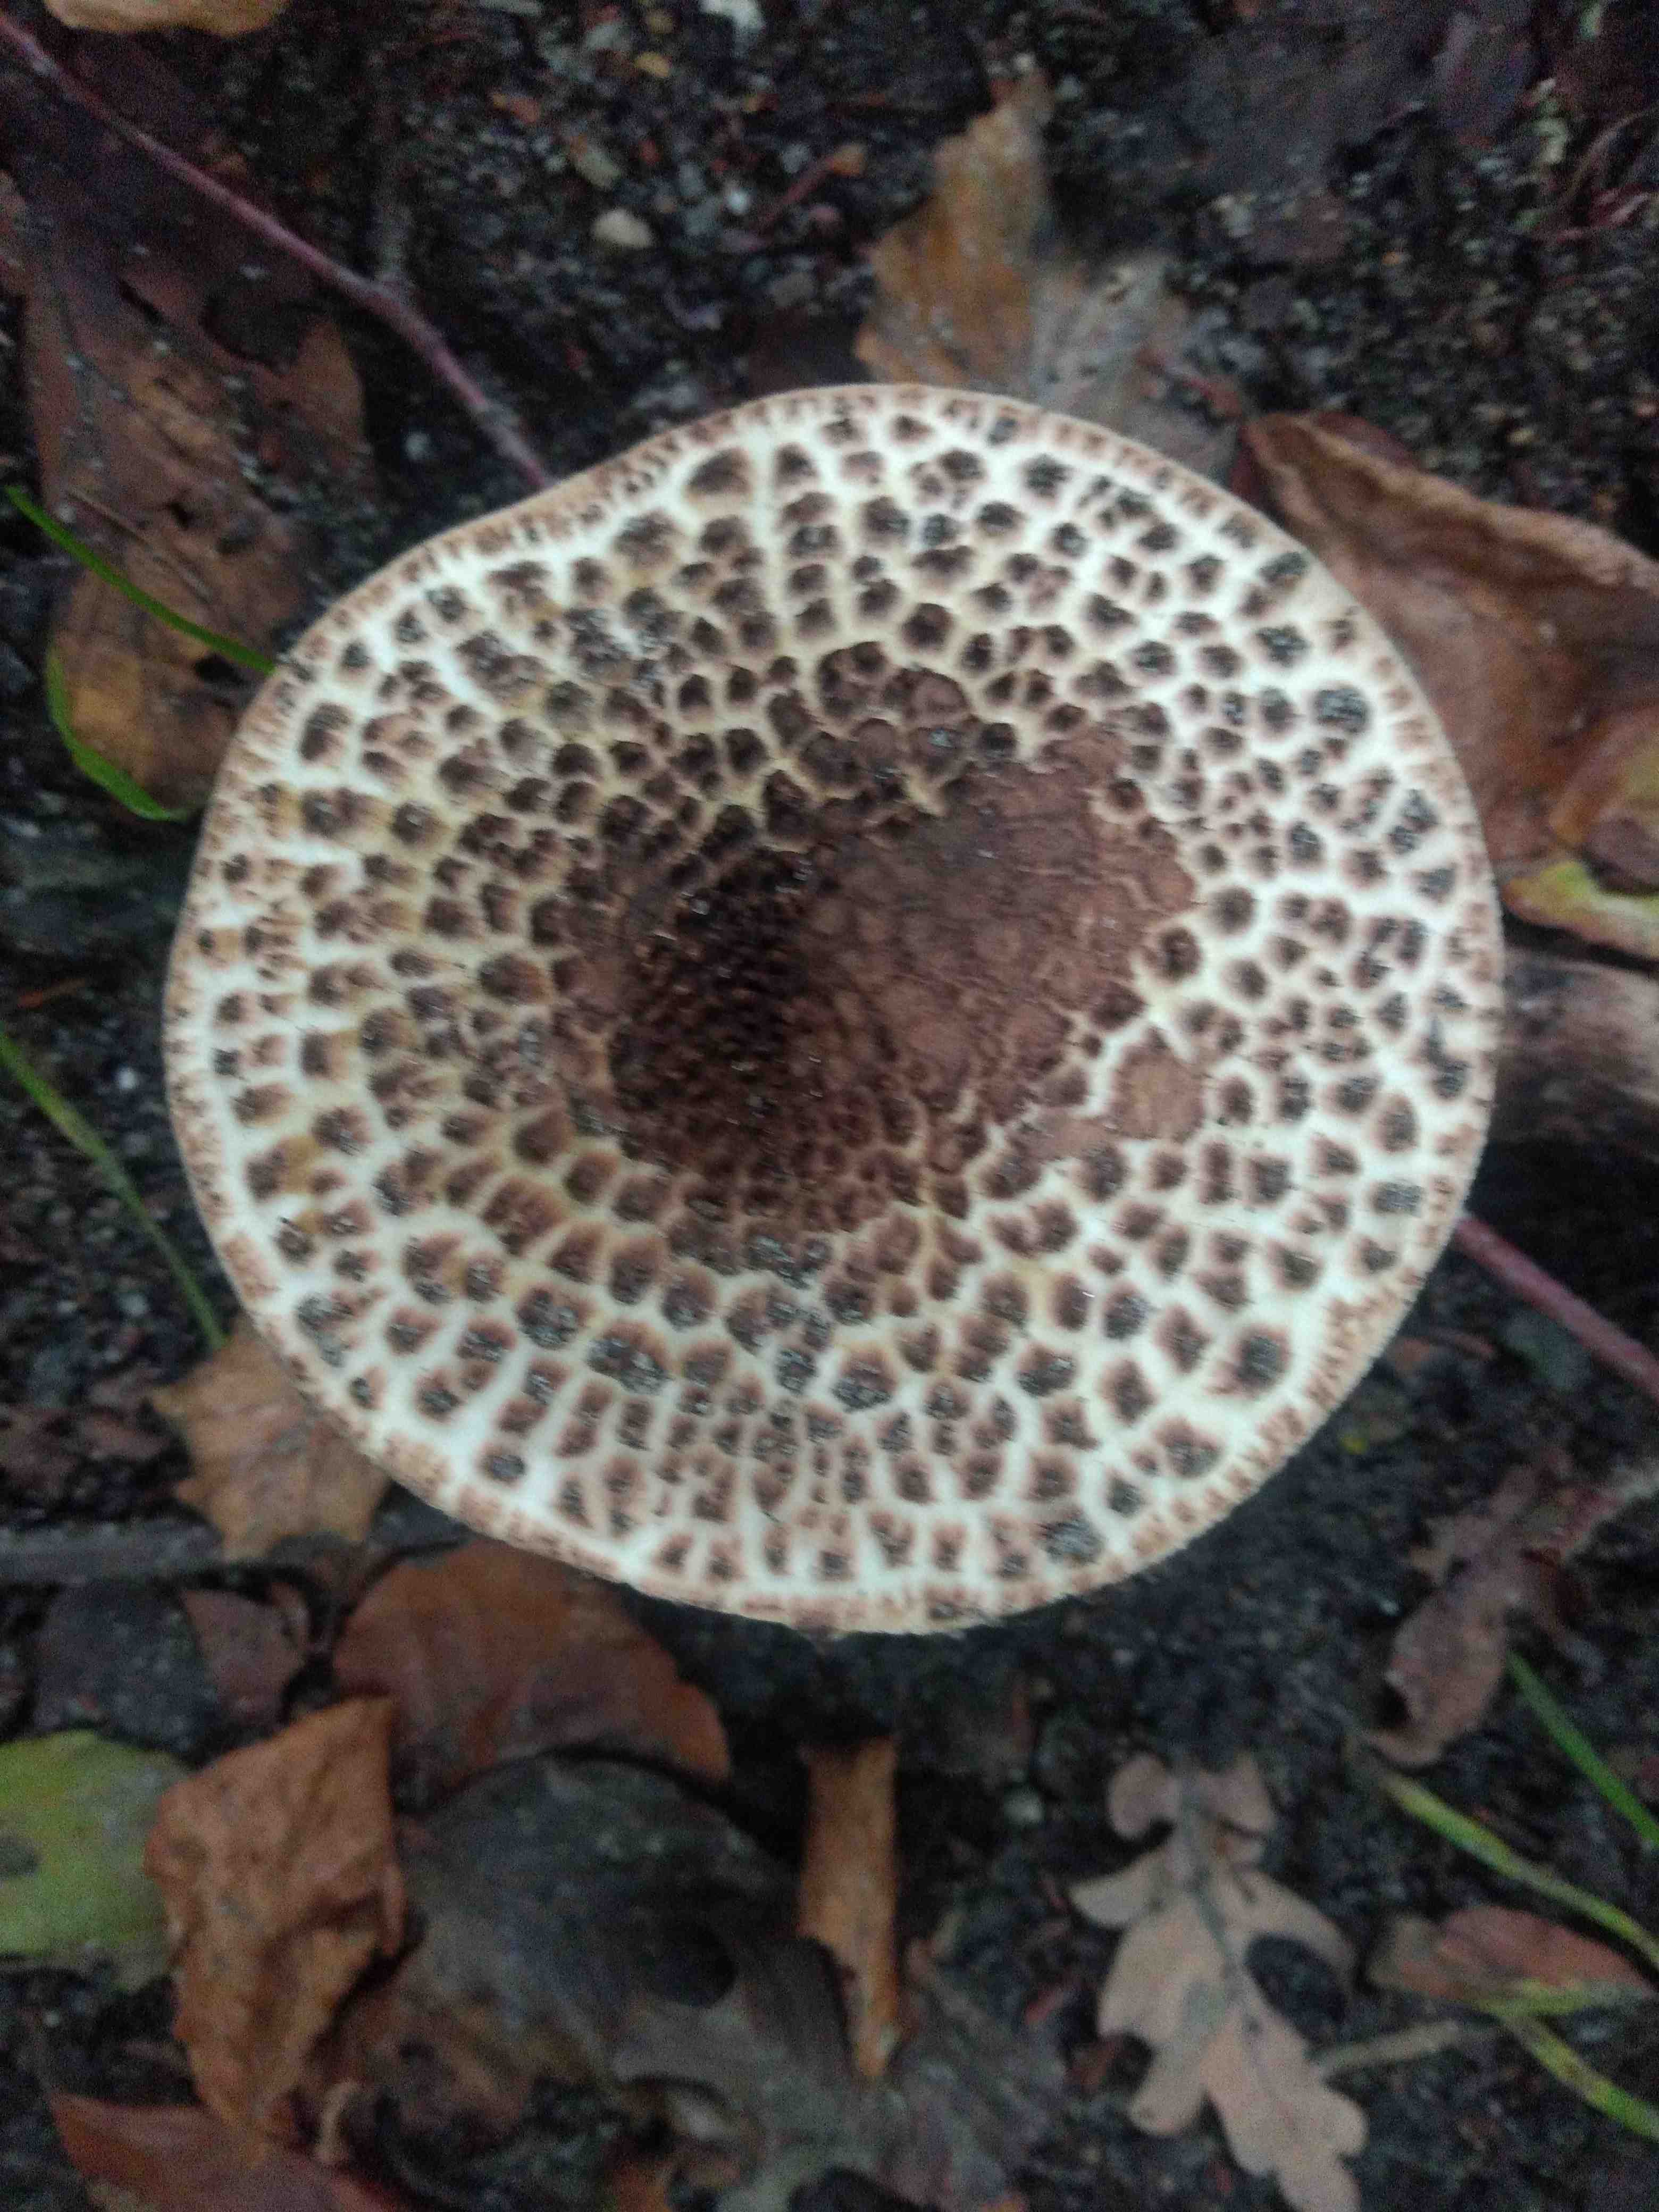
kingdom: Fungi
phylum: Basidiomycota
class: Agaricomycetes
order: Agaricales
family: Agaricaceae
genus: Echinoderma
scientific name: Echinoderma asperum
